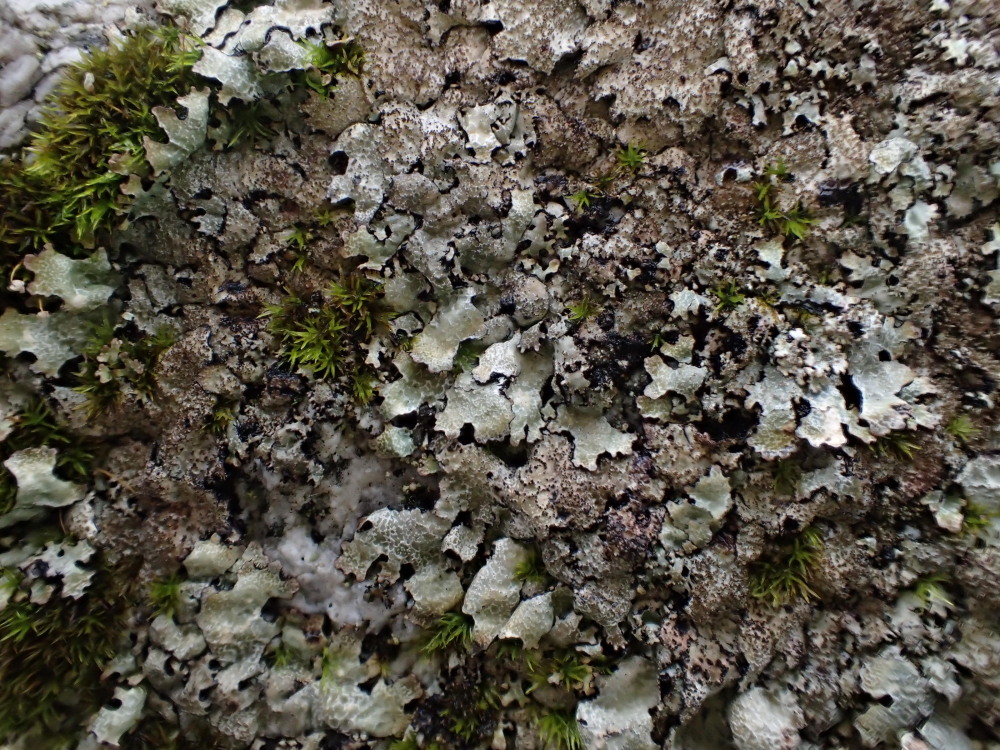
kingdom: Fungi
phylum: Ascomycota
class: Lecanoromycetes
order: Lecanorales
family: Parmeliaceae
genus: Parmelia
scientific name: Parmelia saxatilis
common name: farve-skållav
